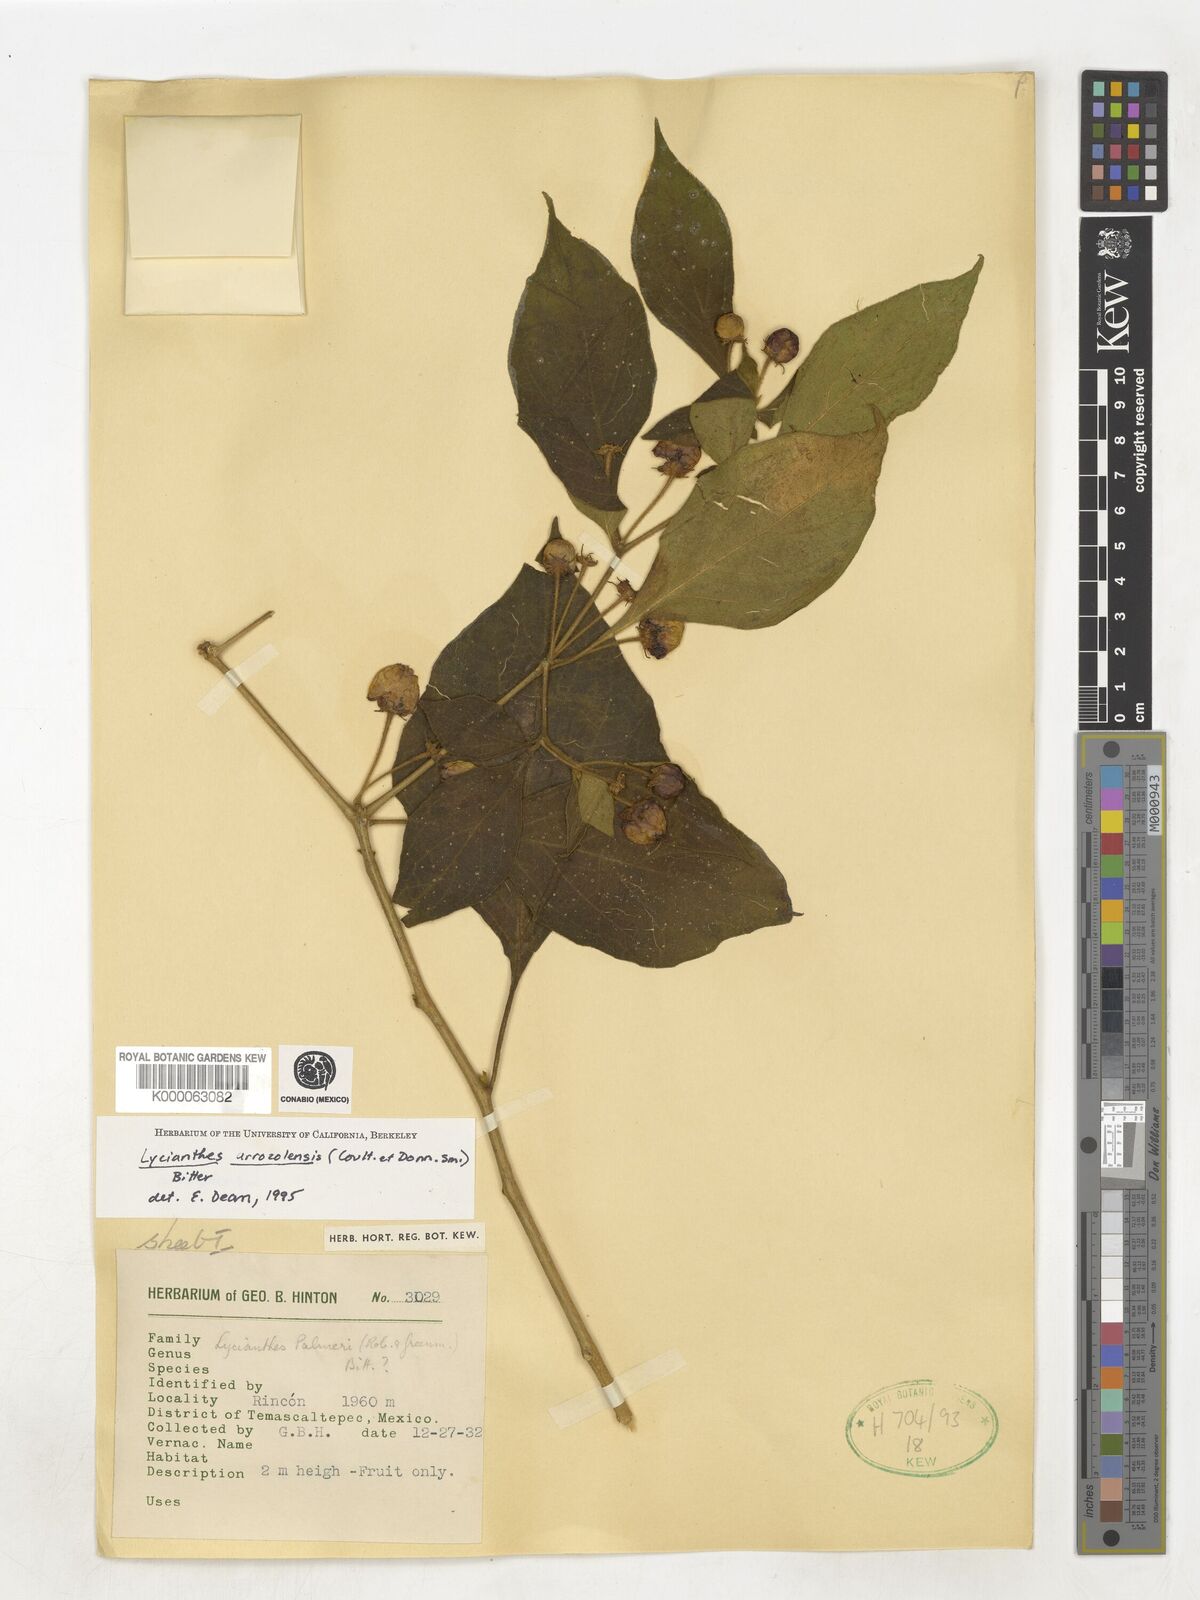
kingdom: Plantae
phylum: Tracheophyta
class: Magnoliopsida
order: Solanales
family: Solanaceae
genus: Lycianthes
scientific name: Lycianthes
